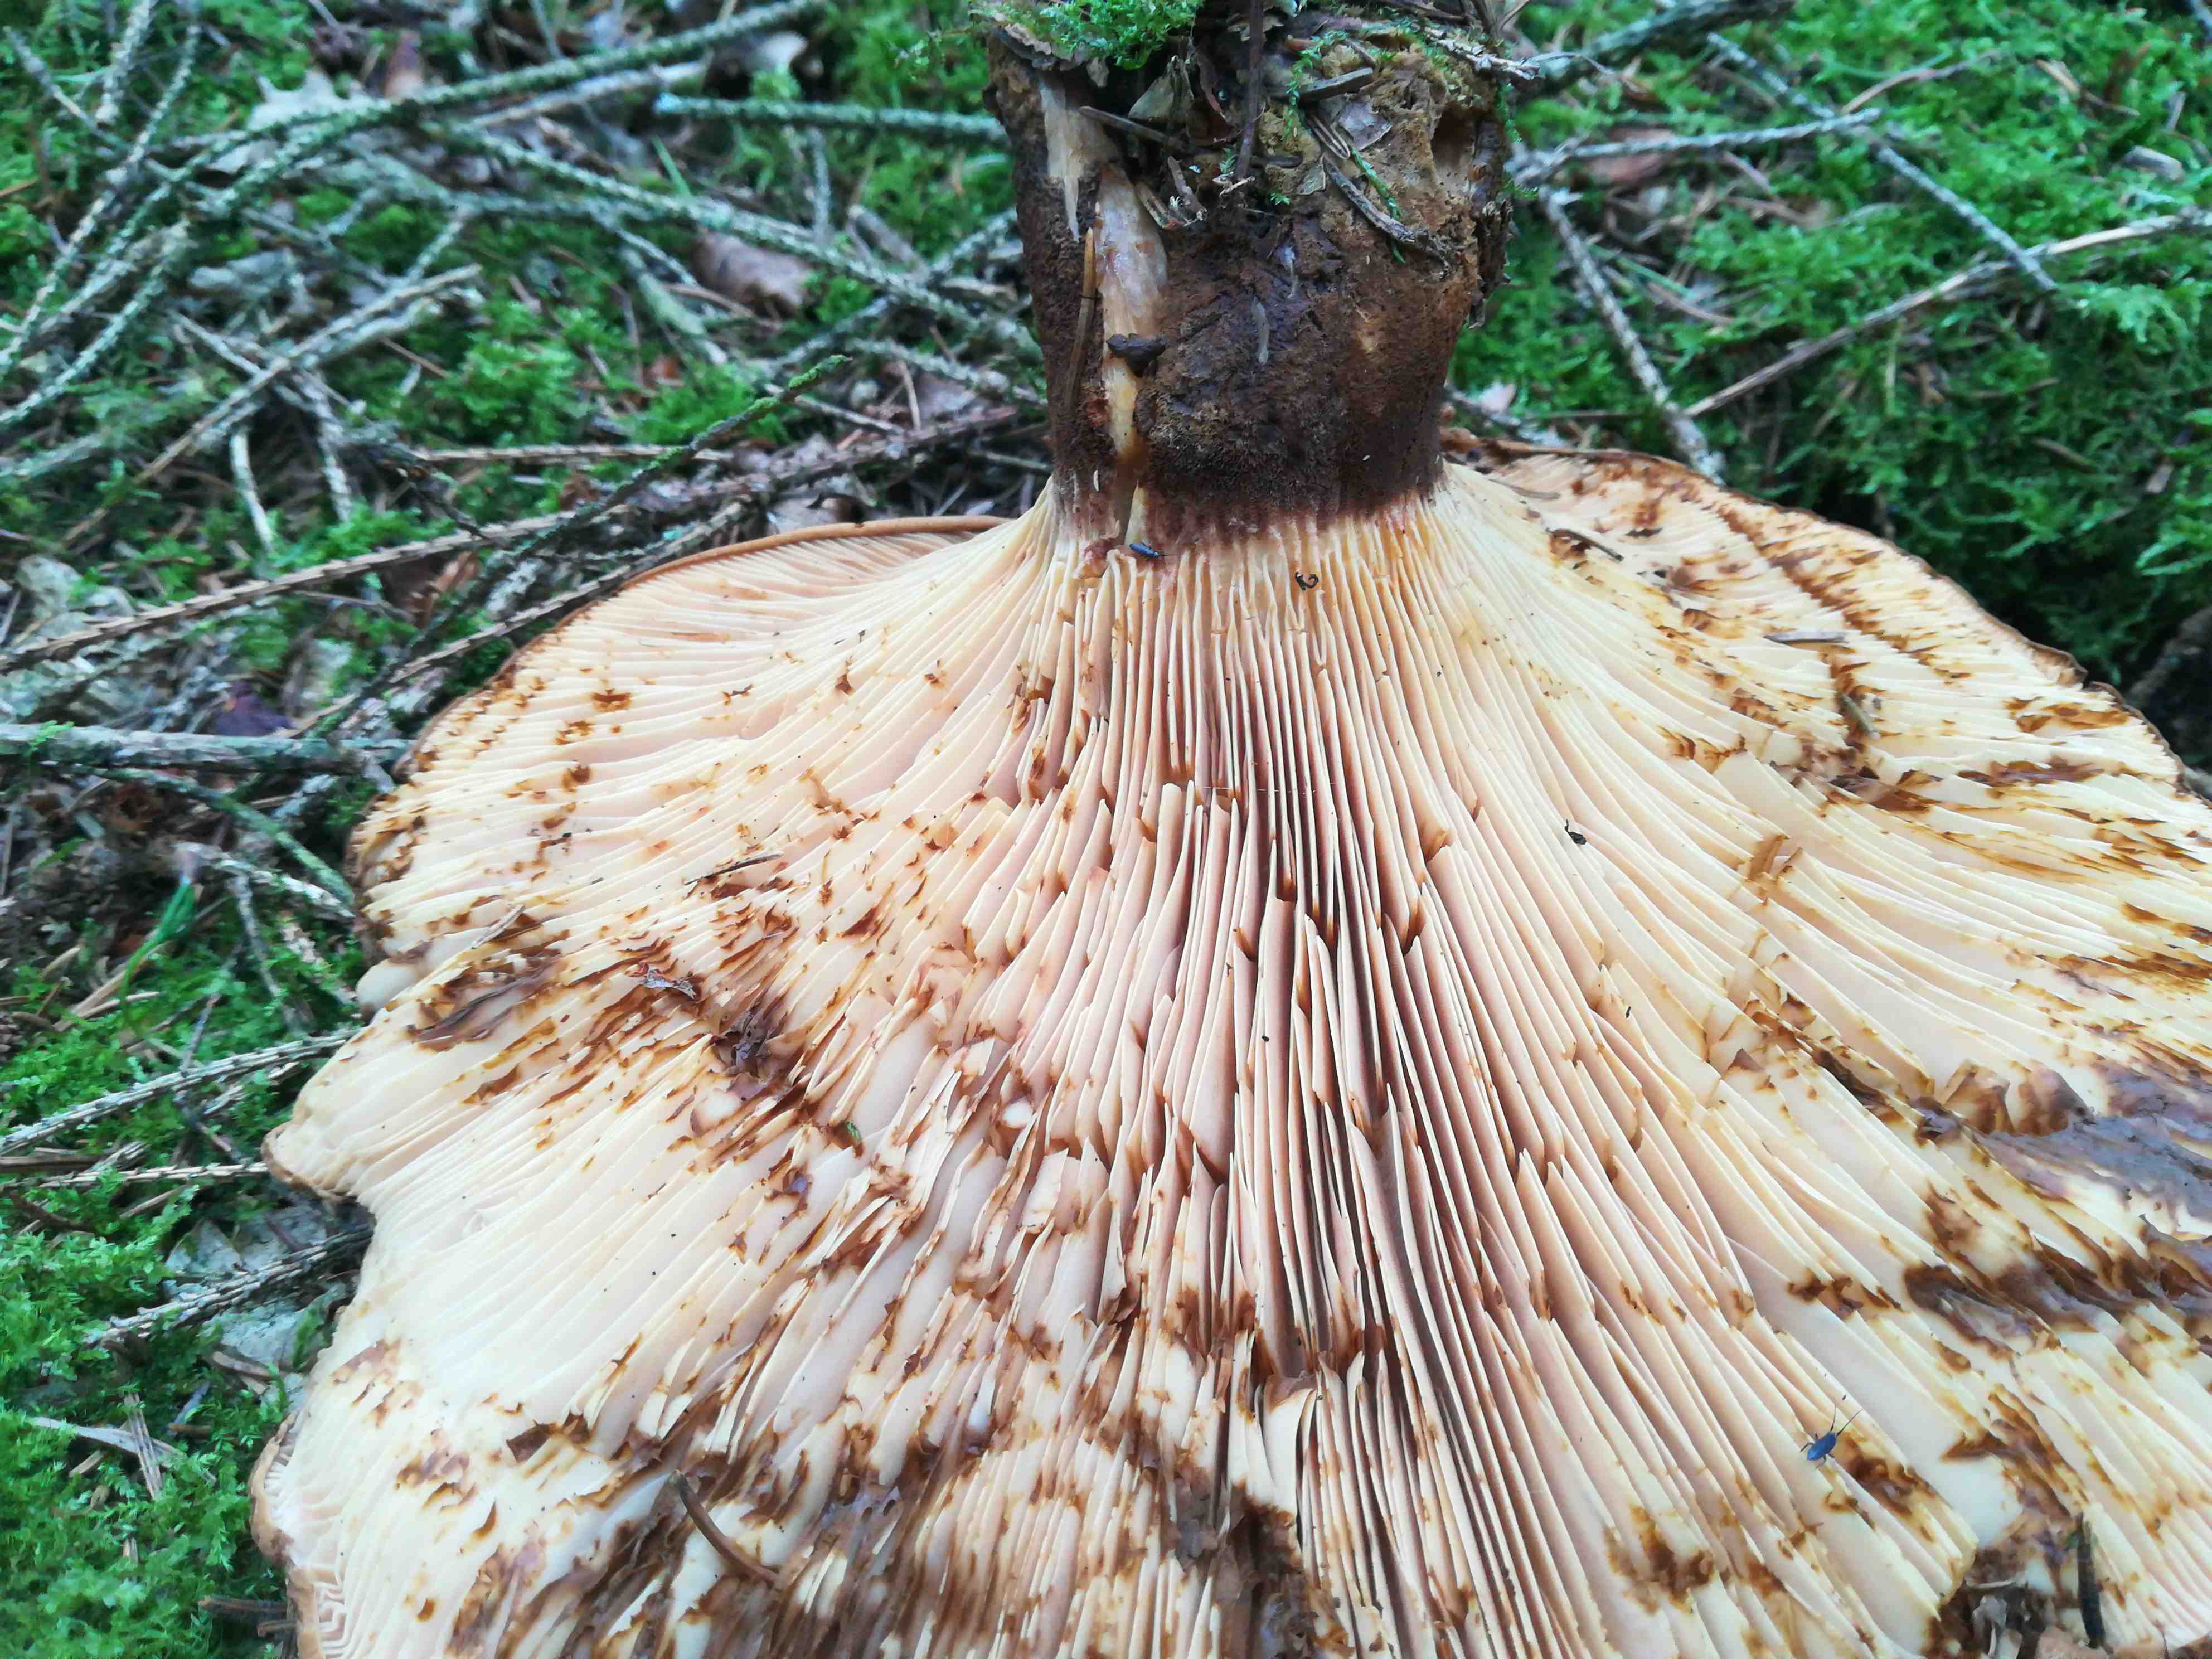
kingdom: Fungi
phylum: Basidiomycota
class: Agaricomycetes
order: Boletales
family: Tapinellaceae
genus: Tapinella
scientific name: Tapinella atrotomentosa
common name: sortfiltet viftesvamp
